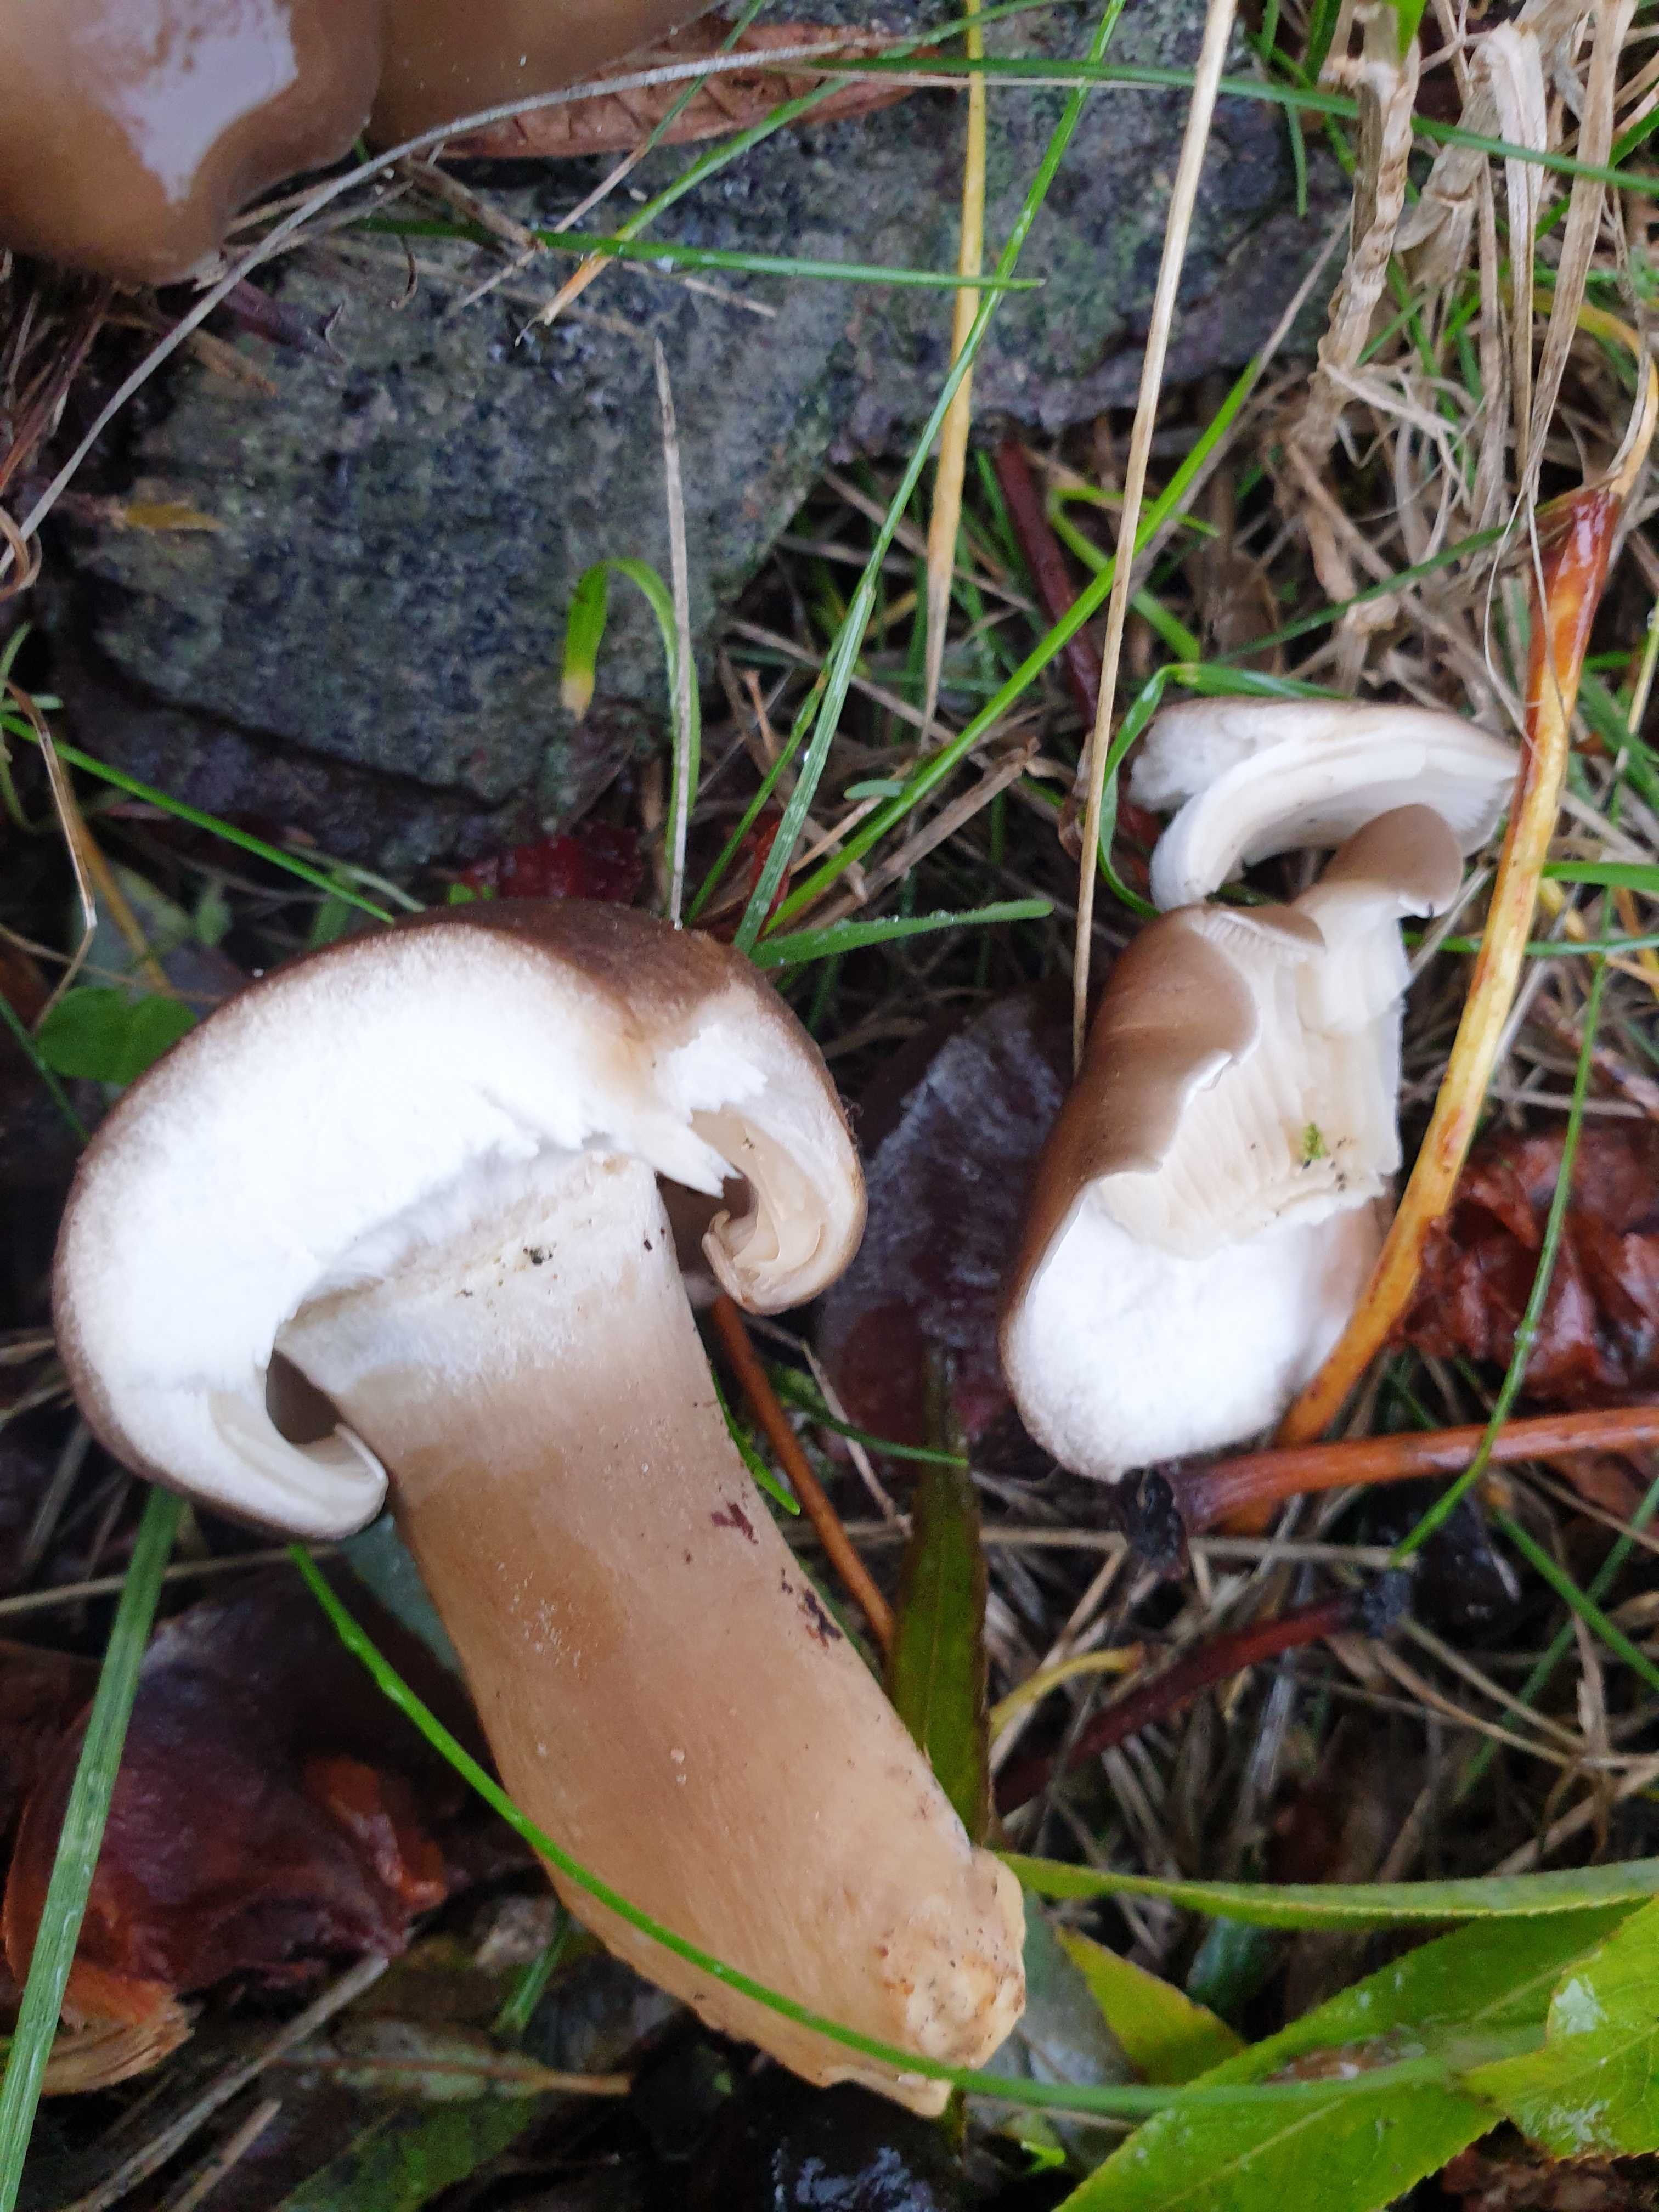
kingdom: Fungi
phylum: Basidiomycota
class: Agaricomycetes
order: Agaricales
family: Lyophyllaceae
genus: Lyophyllum
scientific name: Lyophyllum decastes
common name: røggrå gråblad
